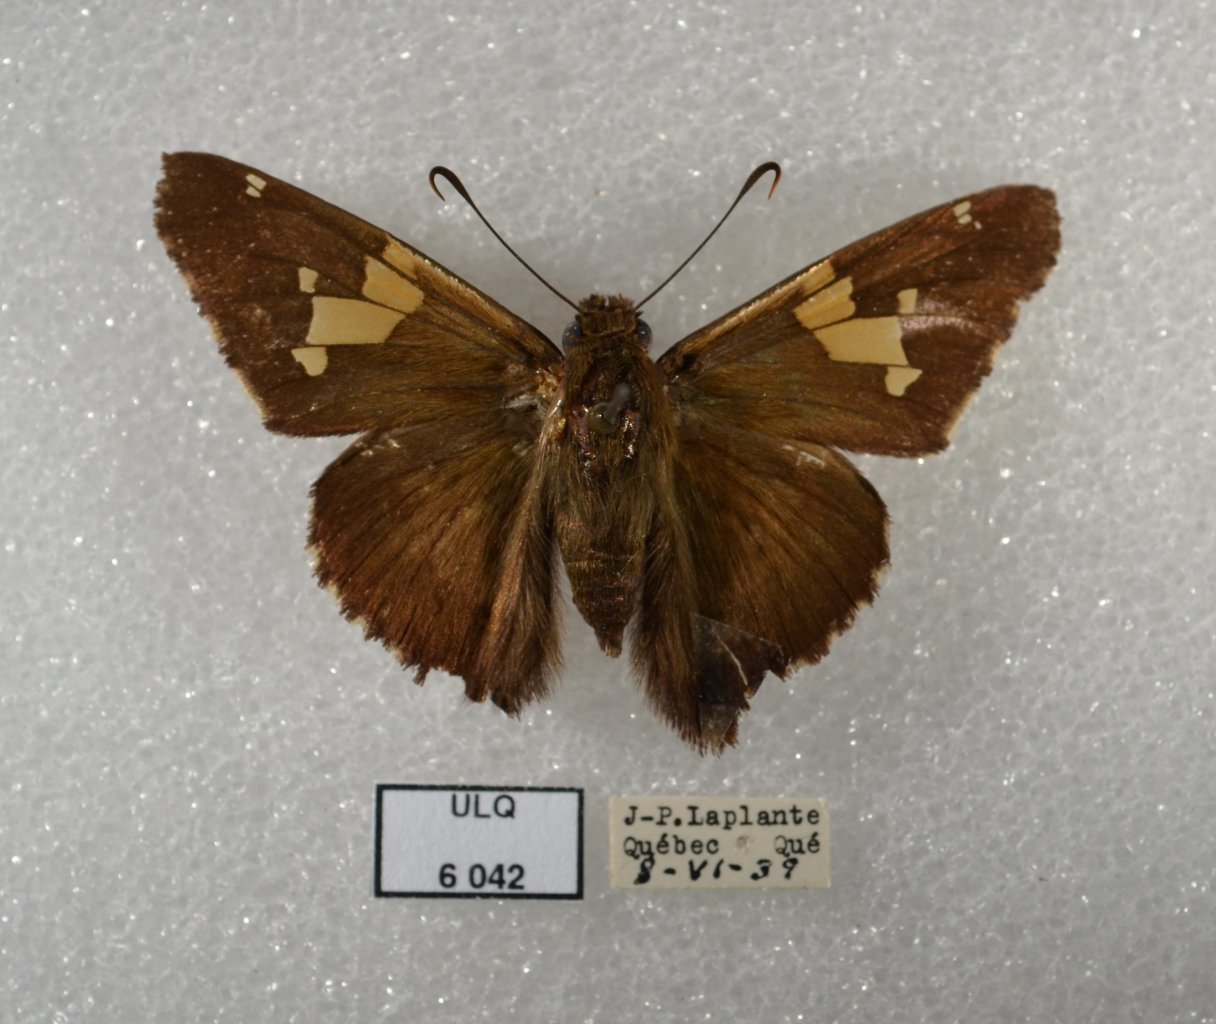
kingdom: Animalia
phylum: Arthropoda
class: Insecta
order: Lepidoptera
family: Hesperiidae
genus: Epargyreus
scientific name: Epargyreus clarus
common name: Silver-spotted Skipper
